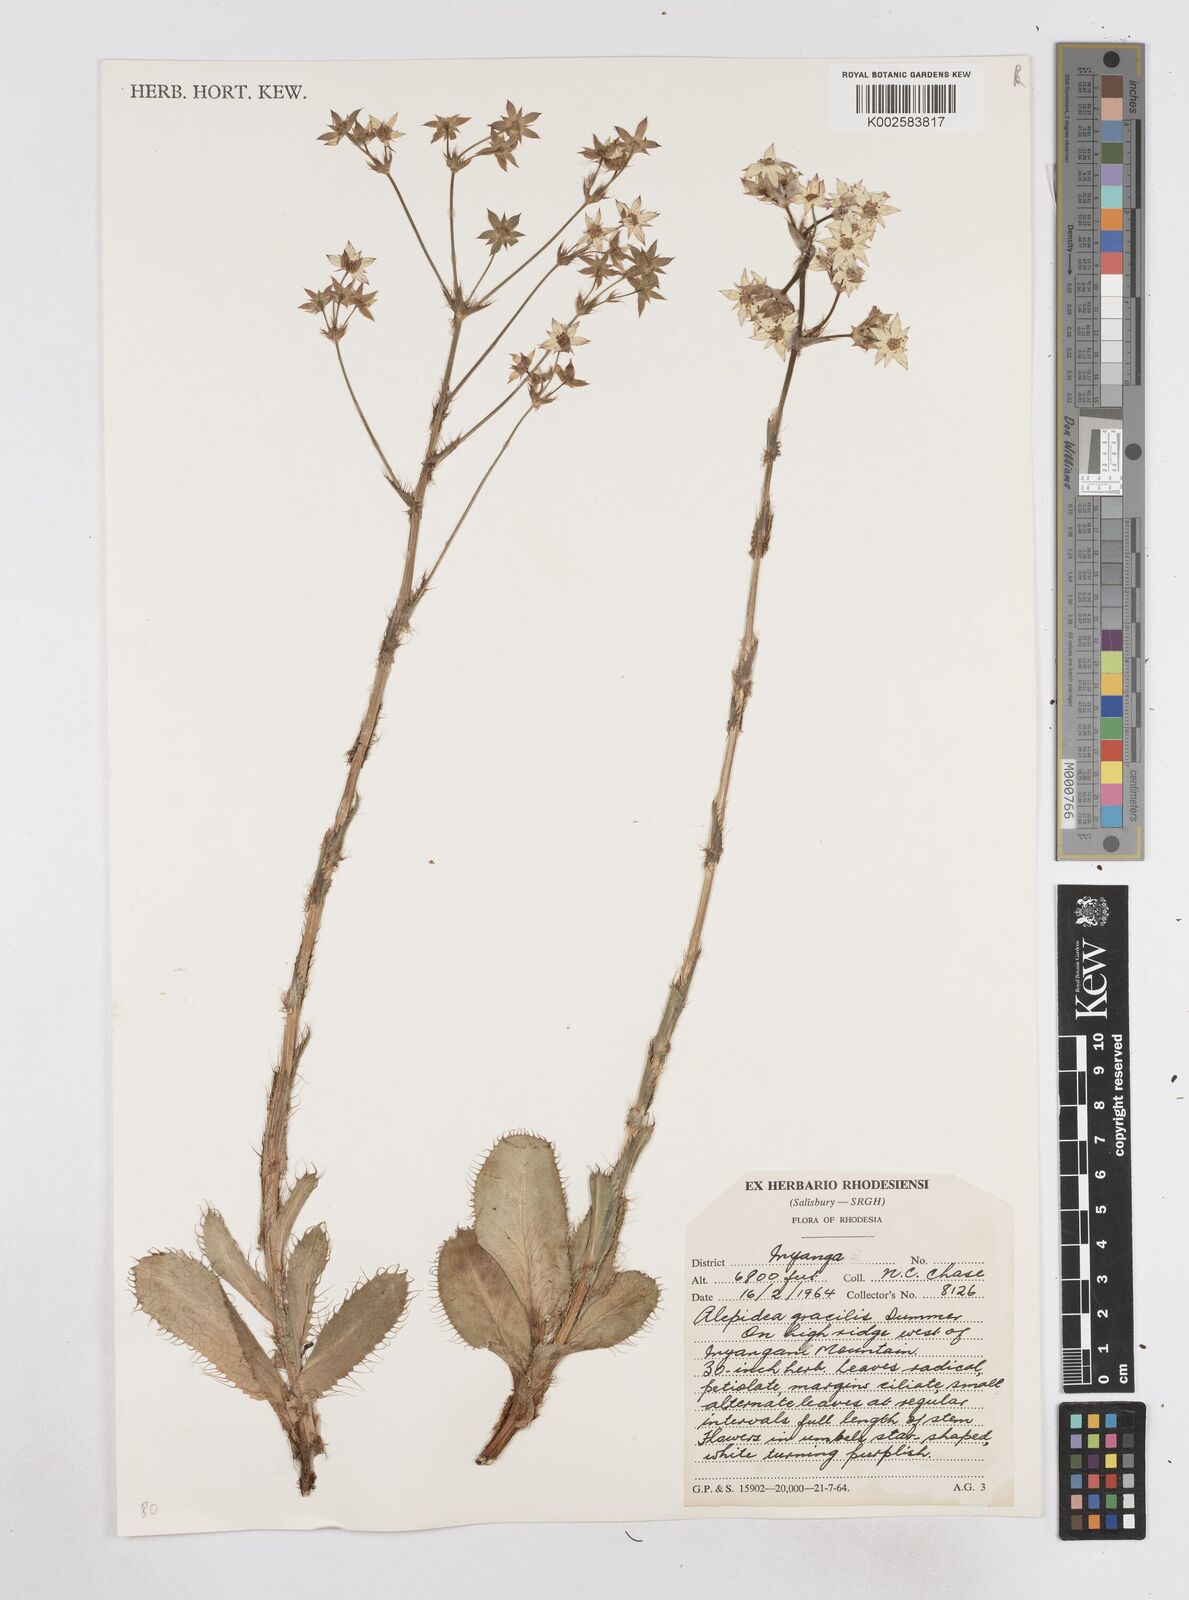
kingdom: Plantae
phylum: Tracheophyta
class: Magnoliopsida
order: Apiales
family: Apiaceae
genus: Alepidea
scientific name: Alepidea peduncularis
